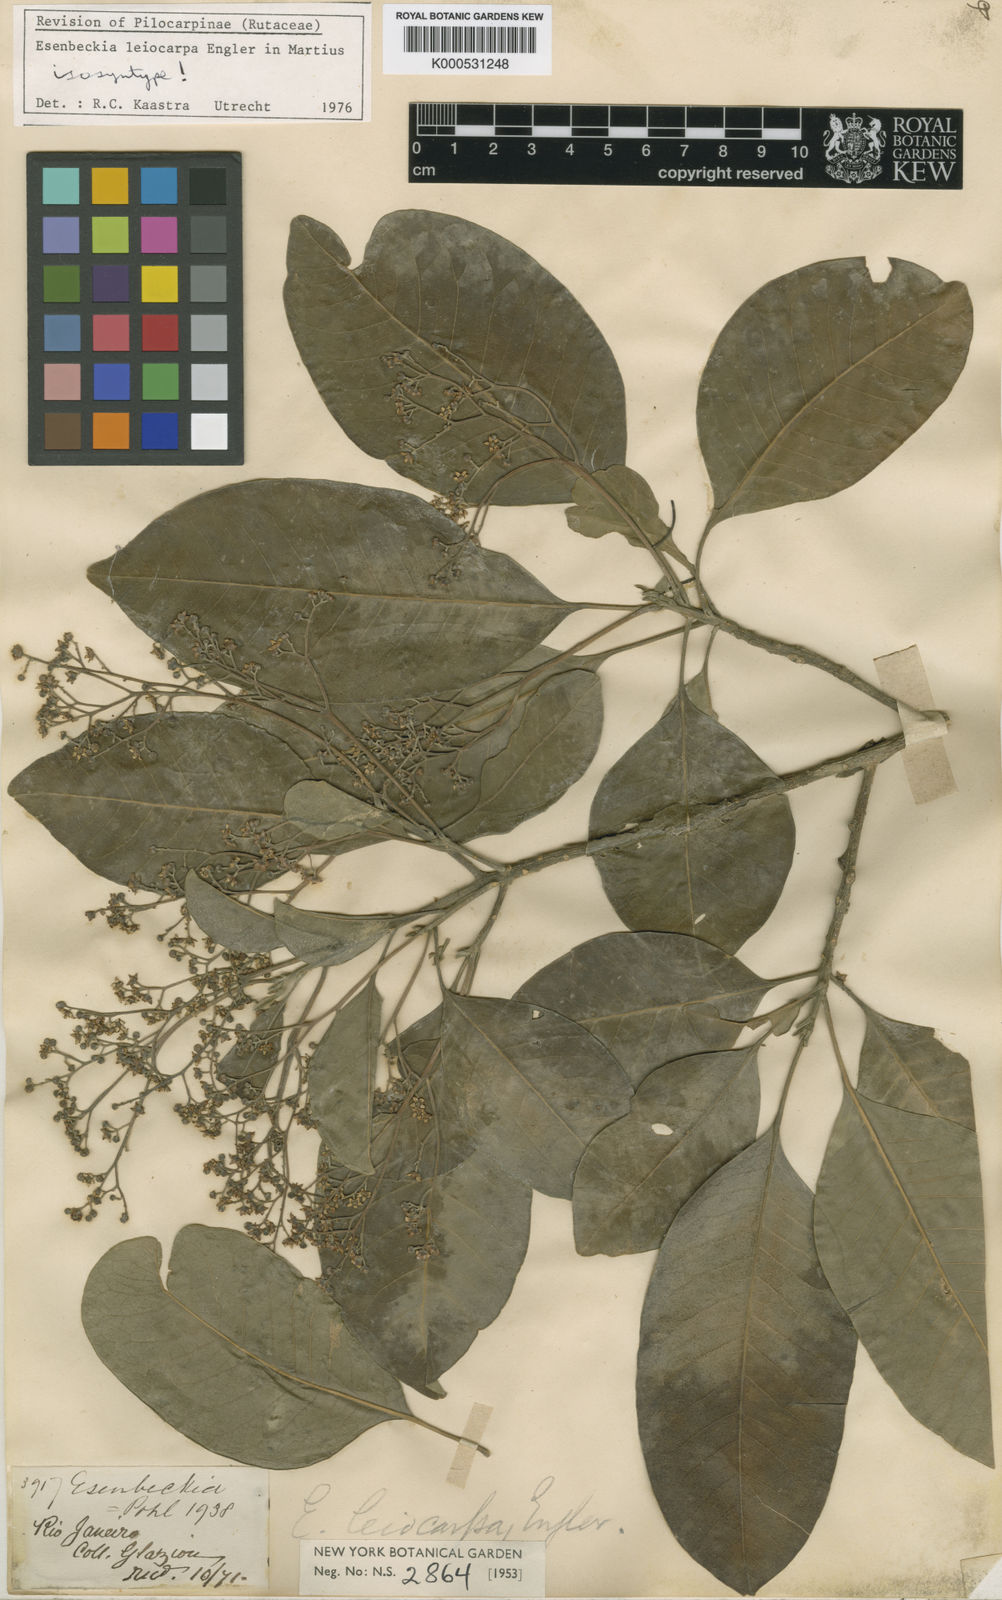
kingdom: Plantae
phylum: Tracheophyta
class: Magnoliopsida
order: Sapindales
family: Rutaceae
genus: Esenbeckia
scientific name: Esenbeckia leiocarpa
